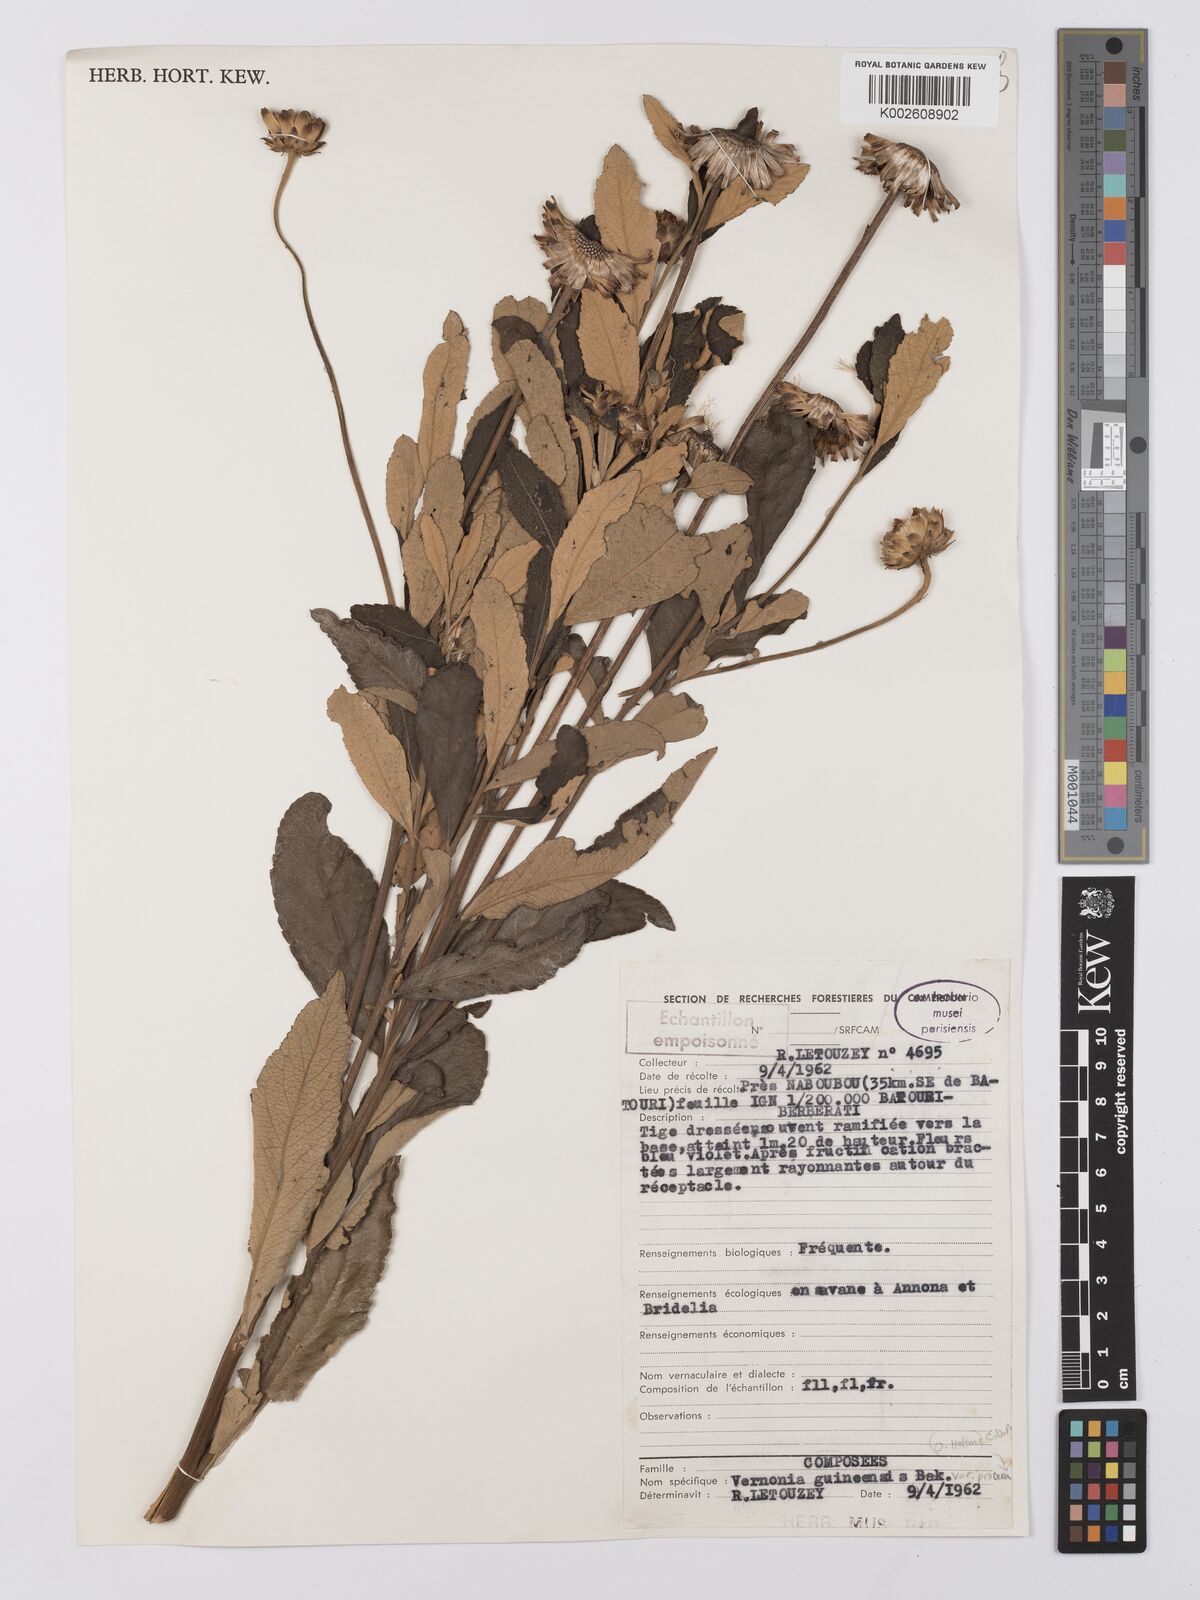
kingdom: Plantae
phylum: Tracheophyta
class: Magnoliopsida
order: Asterales
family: Asteraceae
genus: Baccharoides
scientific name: Baccharoides guineensis
